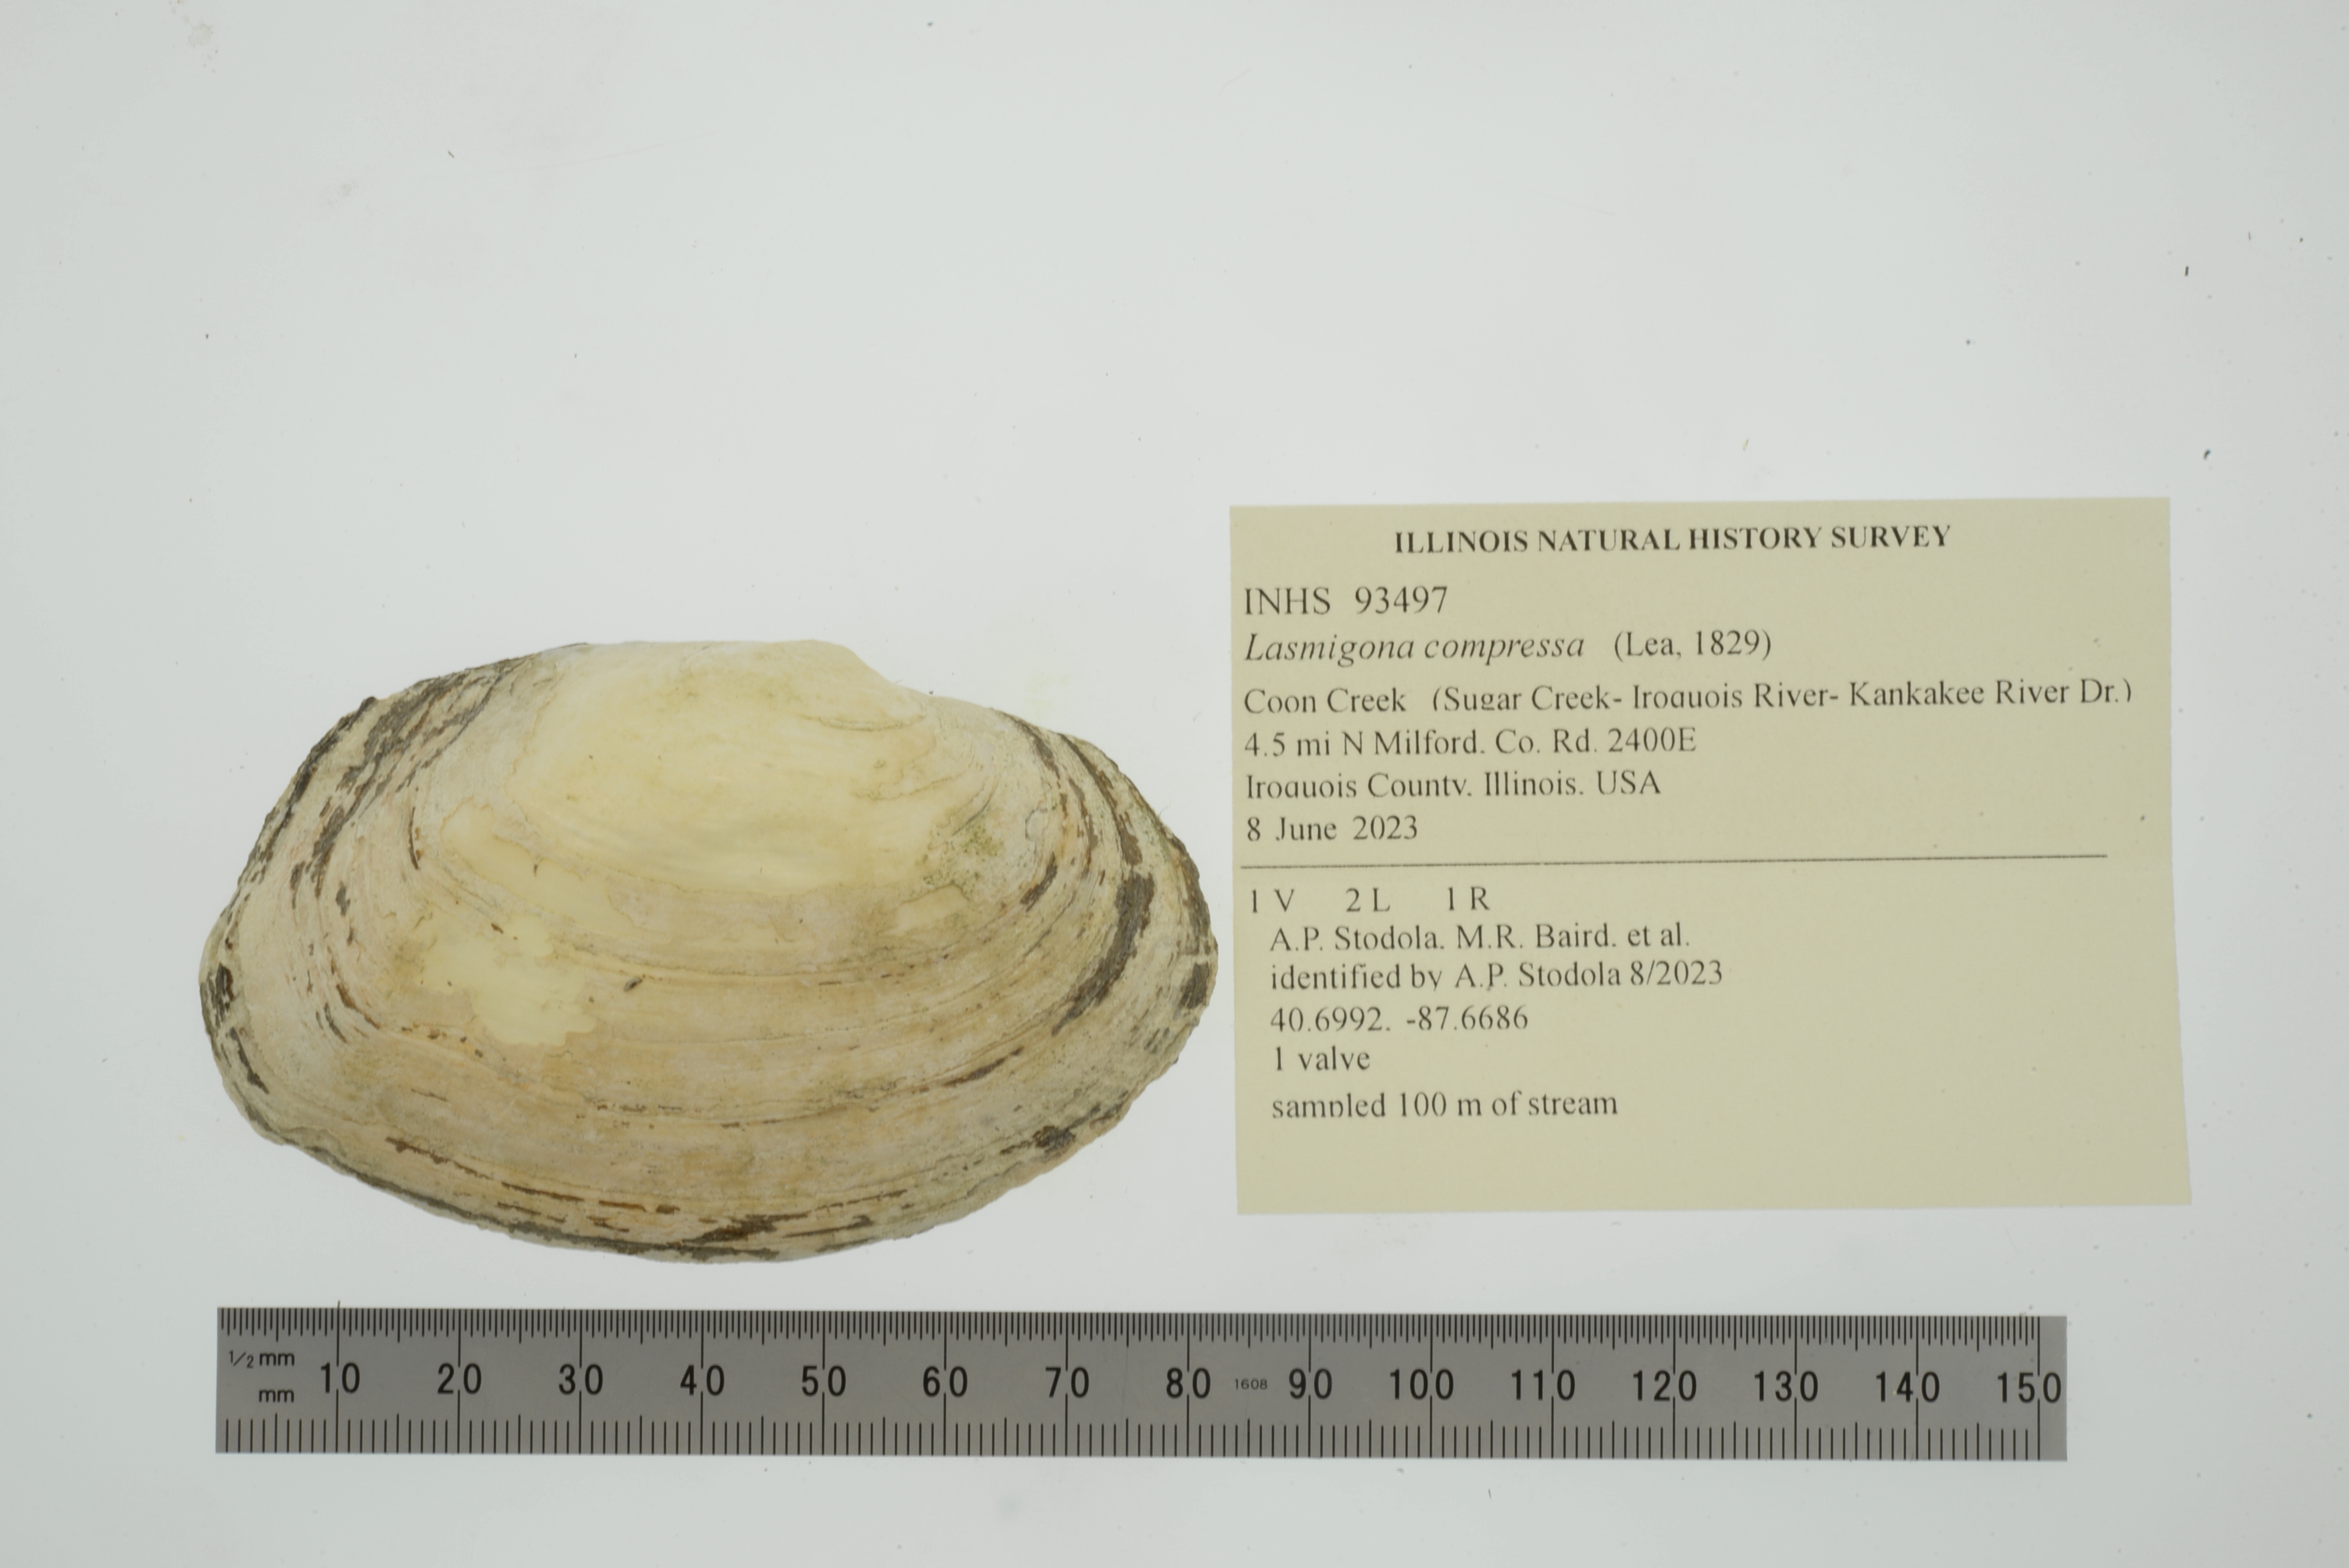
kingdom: Animalia
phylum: Mollusca
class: Bivalvia
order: Unionida
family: Unionidae
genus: Lasmigona
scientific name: Lasmigona compressa
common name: Creek heelsplitter
